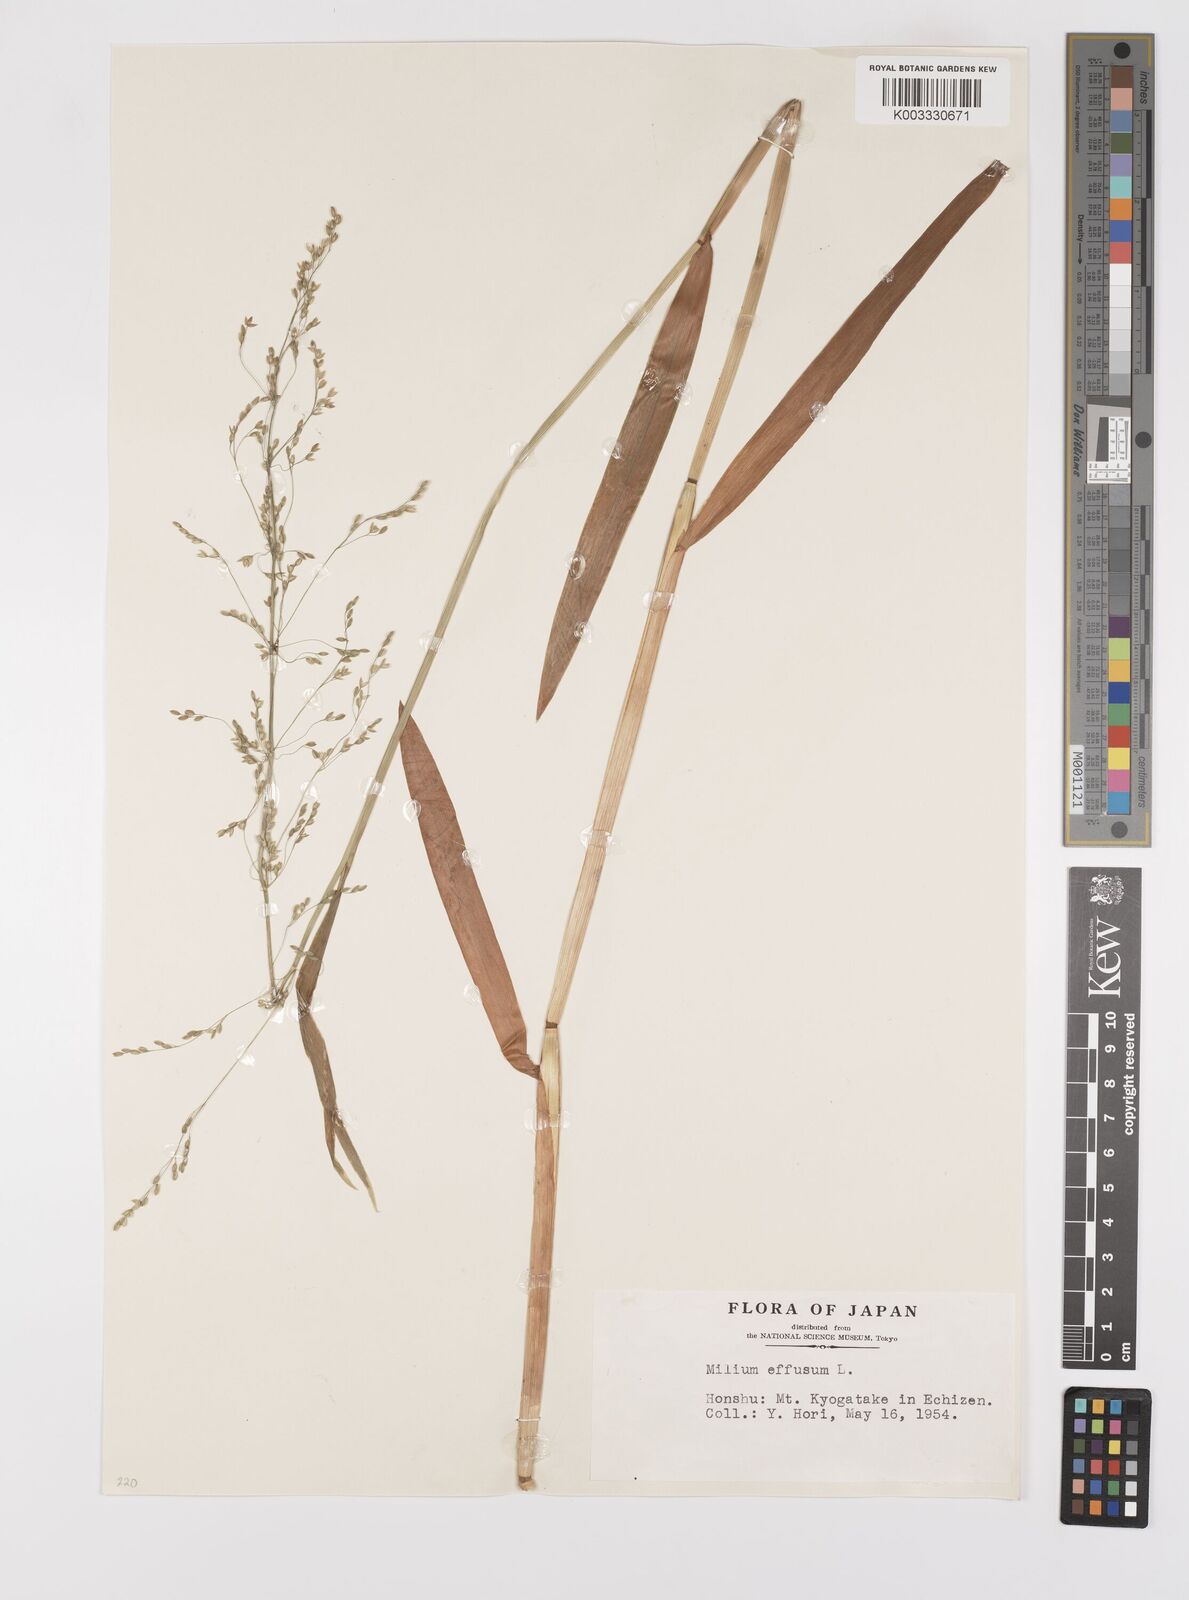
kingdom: Plantae
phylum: Tracheophyta
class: Liliopsida
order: Poales
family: Poaceae
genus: Milium
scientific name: Milium effusum
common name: Wood millet
